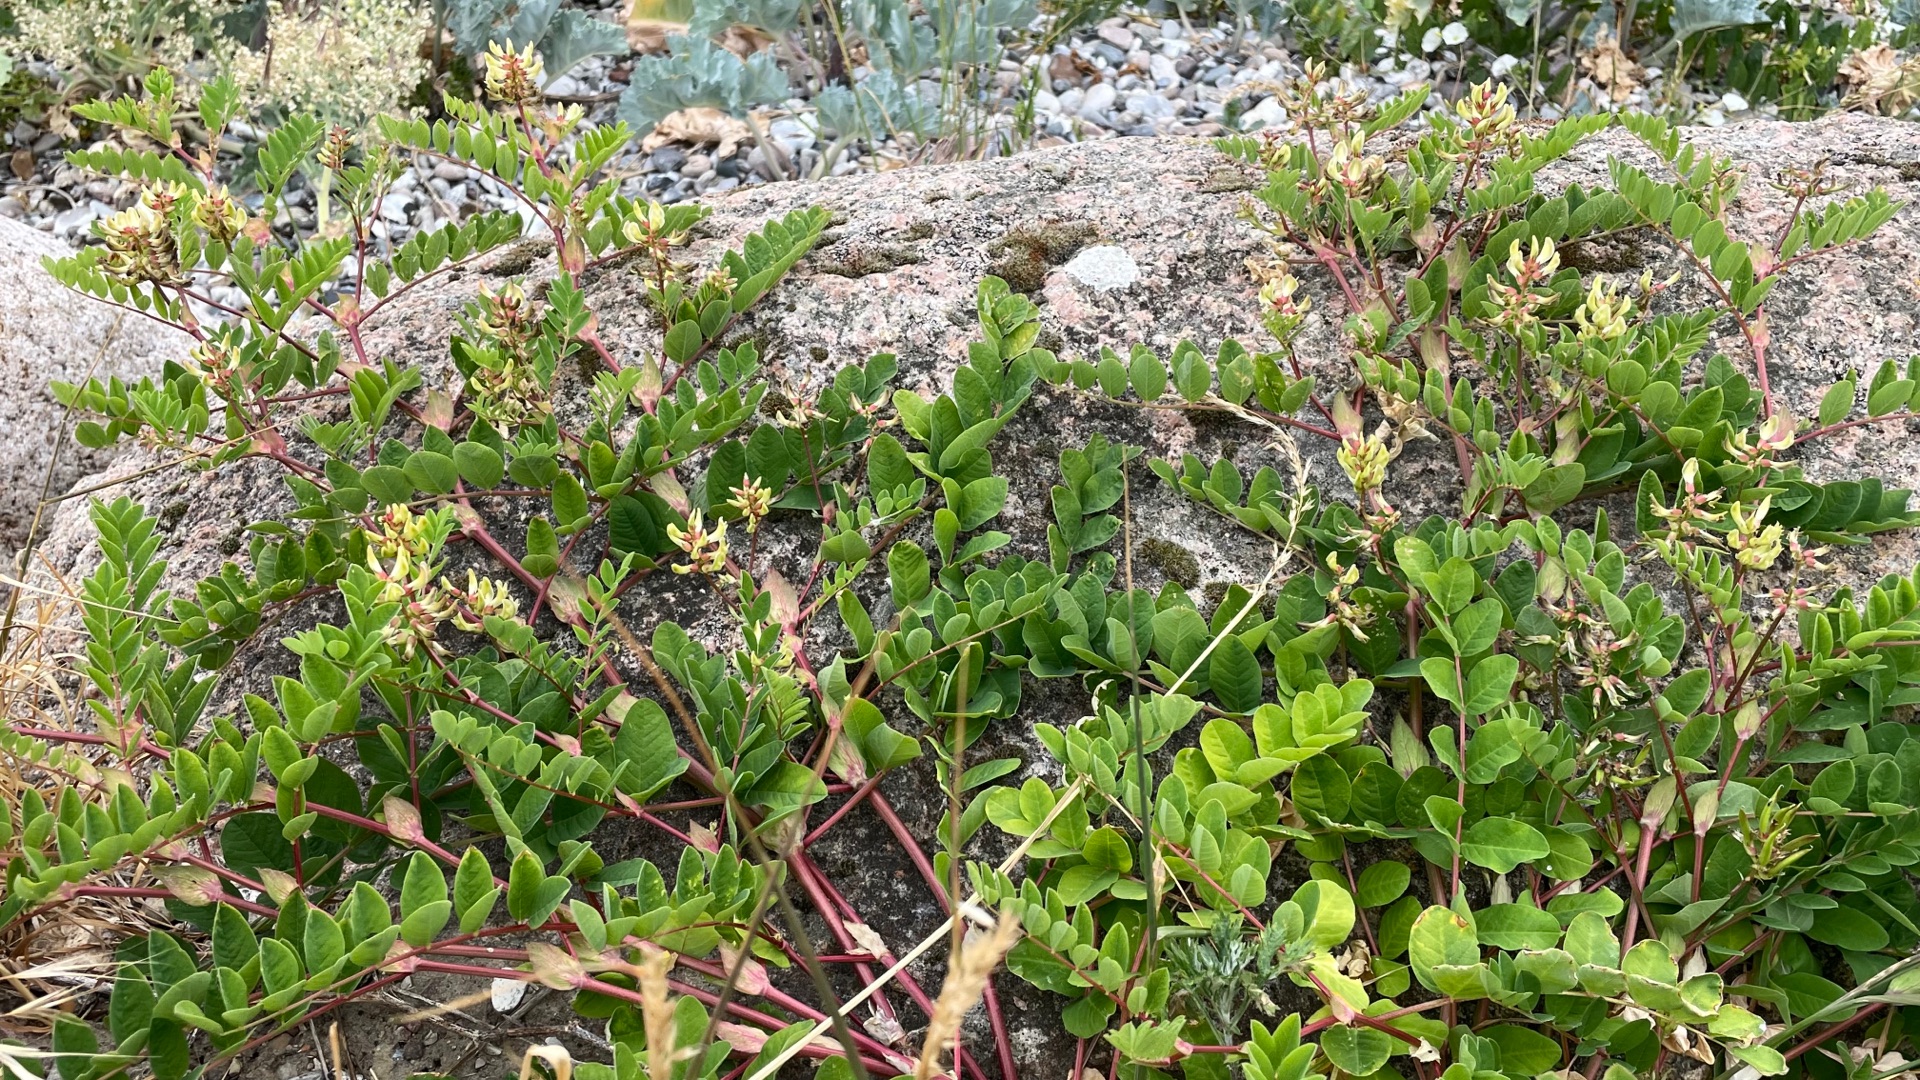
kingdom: Plantae
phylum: Tracheophyta
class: Magnoliopsida
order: Fabales
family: Fabaceae
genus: Astragalus
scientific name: Astragalus glycyphyllos
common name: Sød astragel
